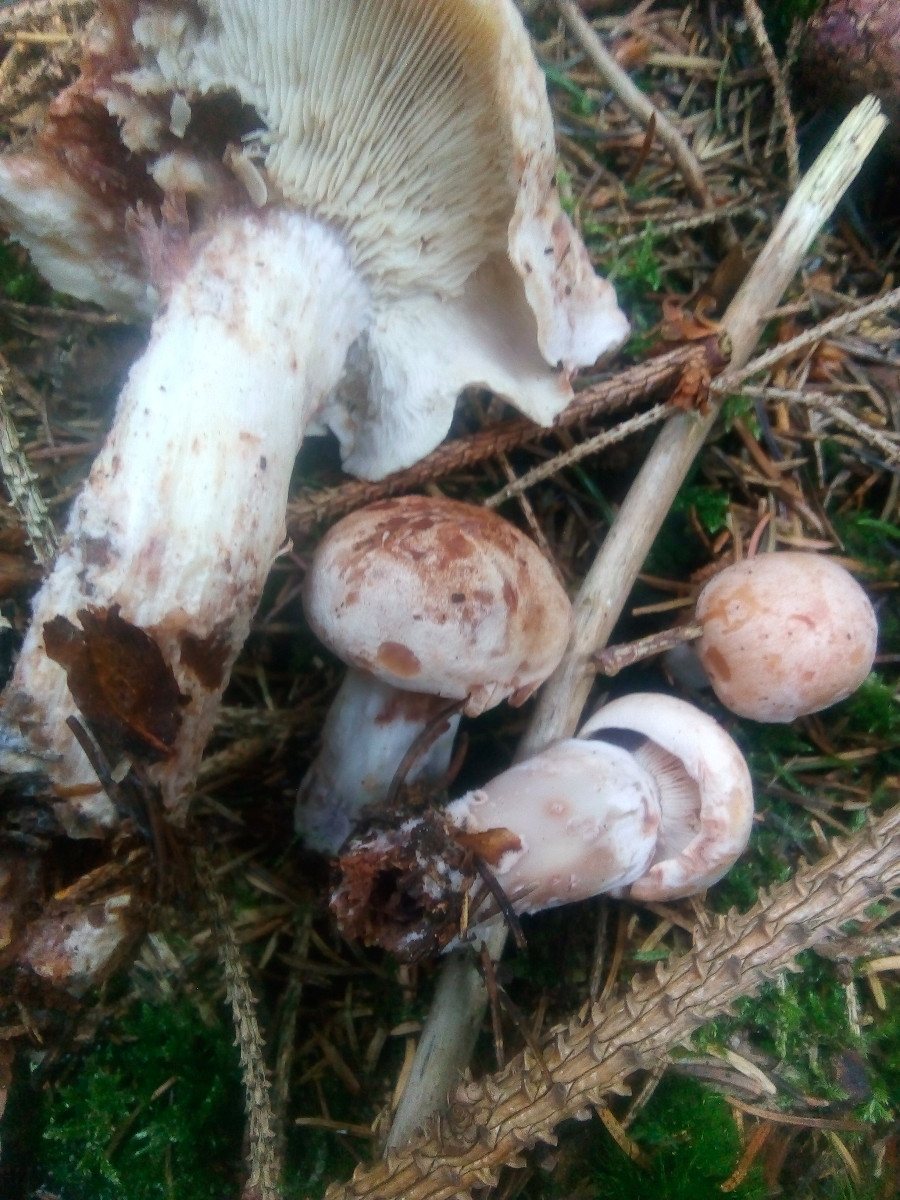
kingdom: Fungi
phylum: Basidiomycota
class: Agaricomycetes
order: Agaricales
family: Omphalotaceae
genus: Rhodocollybia
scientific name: Rhodocollybia maculata
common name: plettet fladhat
